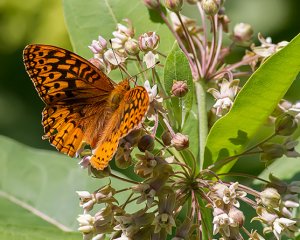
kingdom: Animalia
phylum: Arthropoda
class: Insecta
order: Lepidoptera
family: Nymphalidae
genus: Speyeria
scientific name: Speyeria aphrodite
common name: Aphrodite Fritillary
